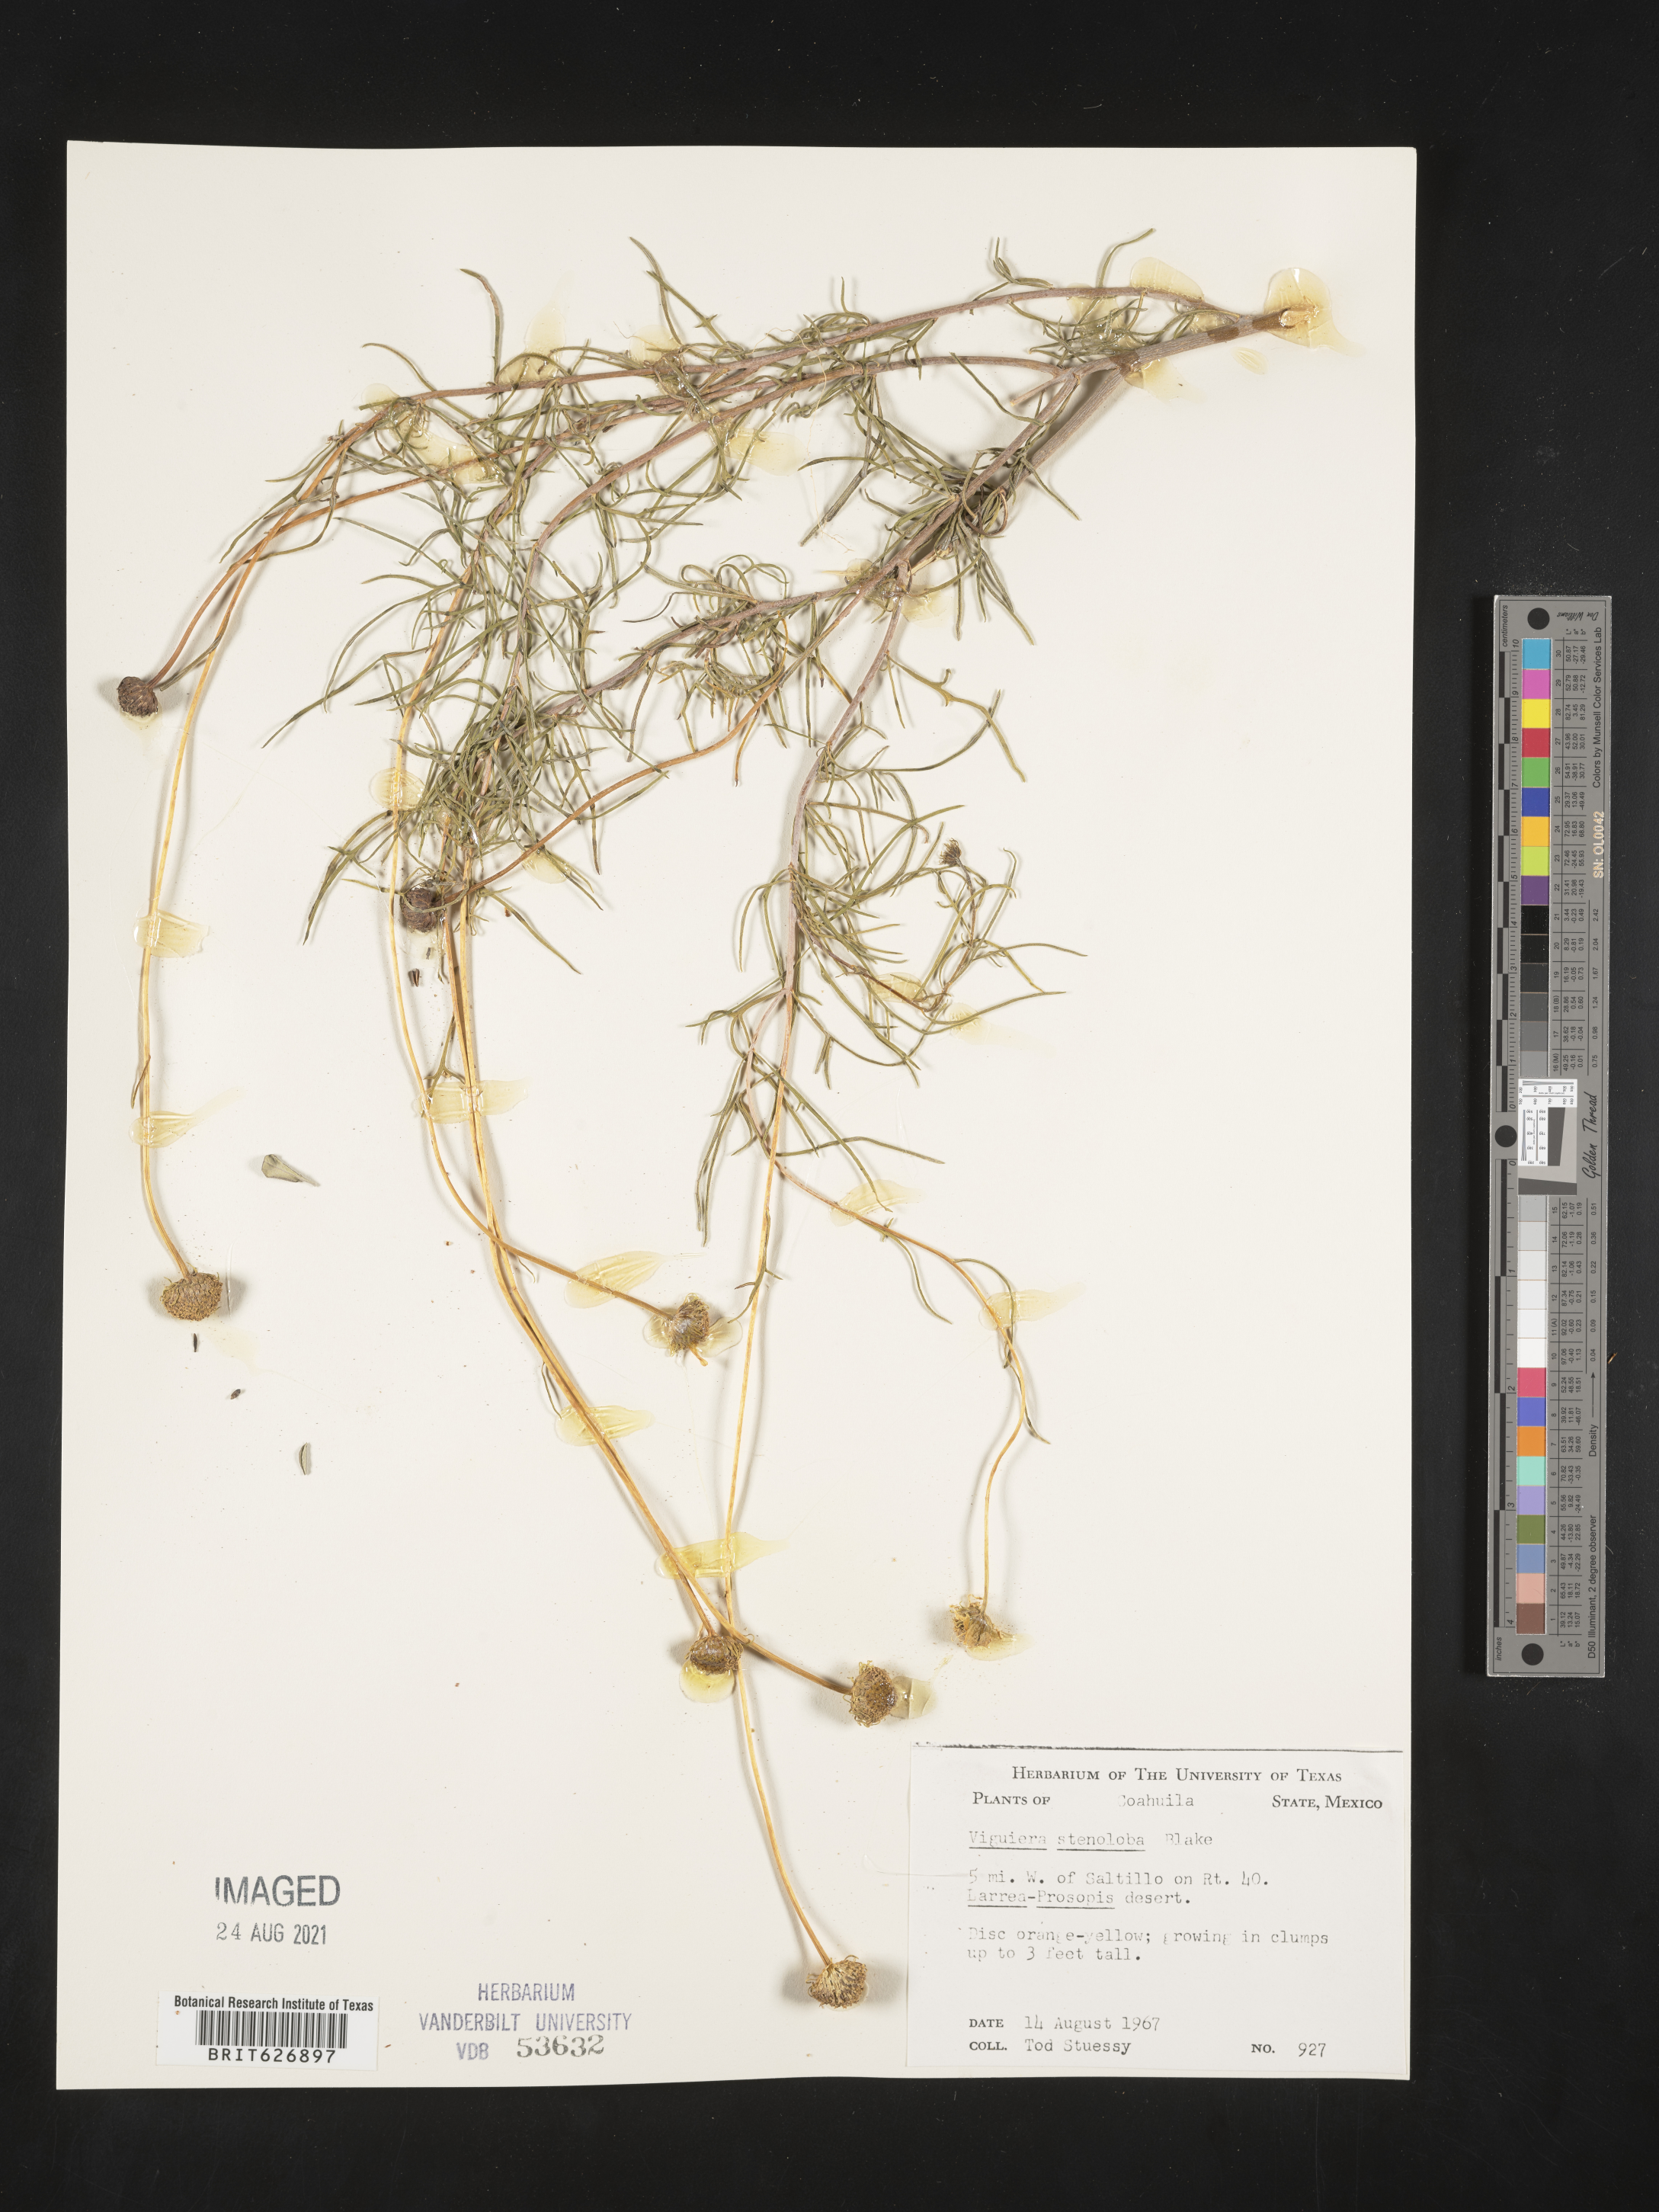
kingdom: Plantae
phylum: Tracheophyta
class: Magnoliopsida
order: Asterales
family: Asteraceae
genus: Viguiera
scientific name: Viguiera
